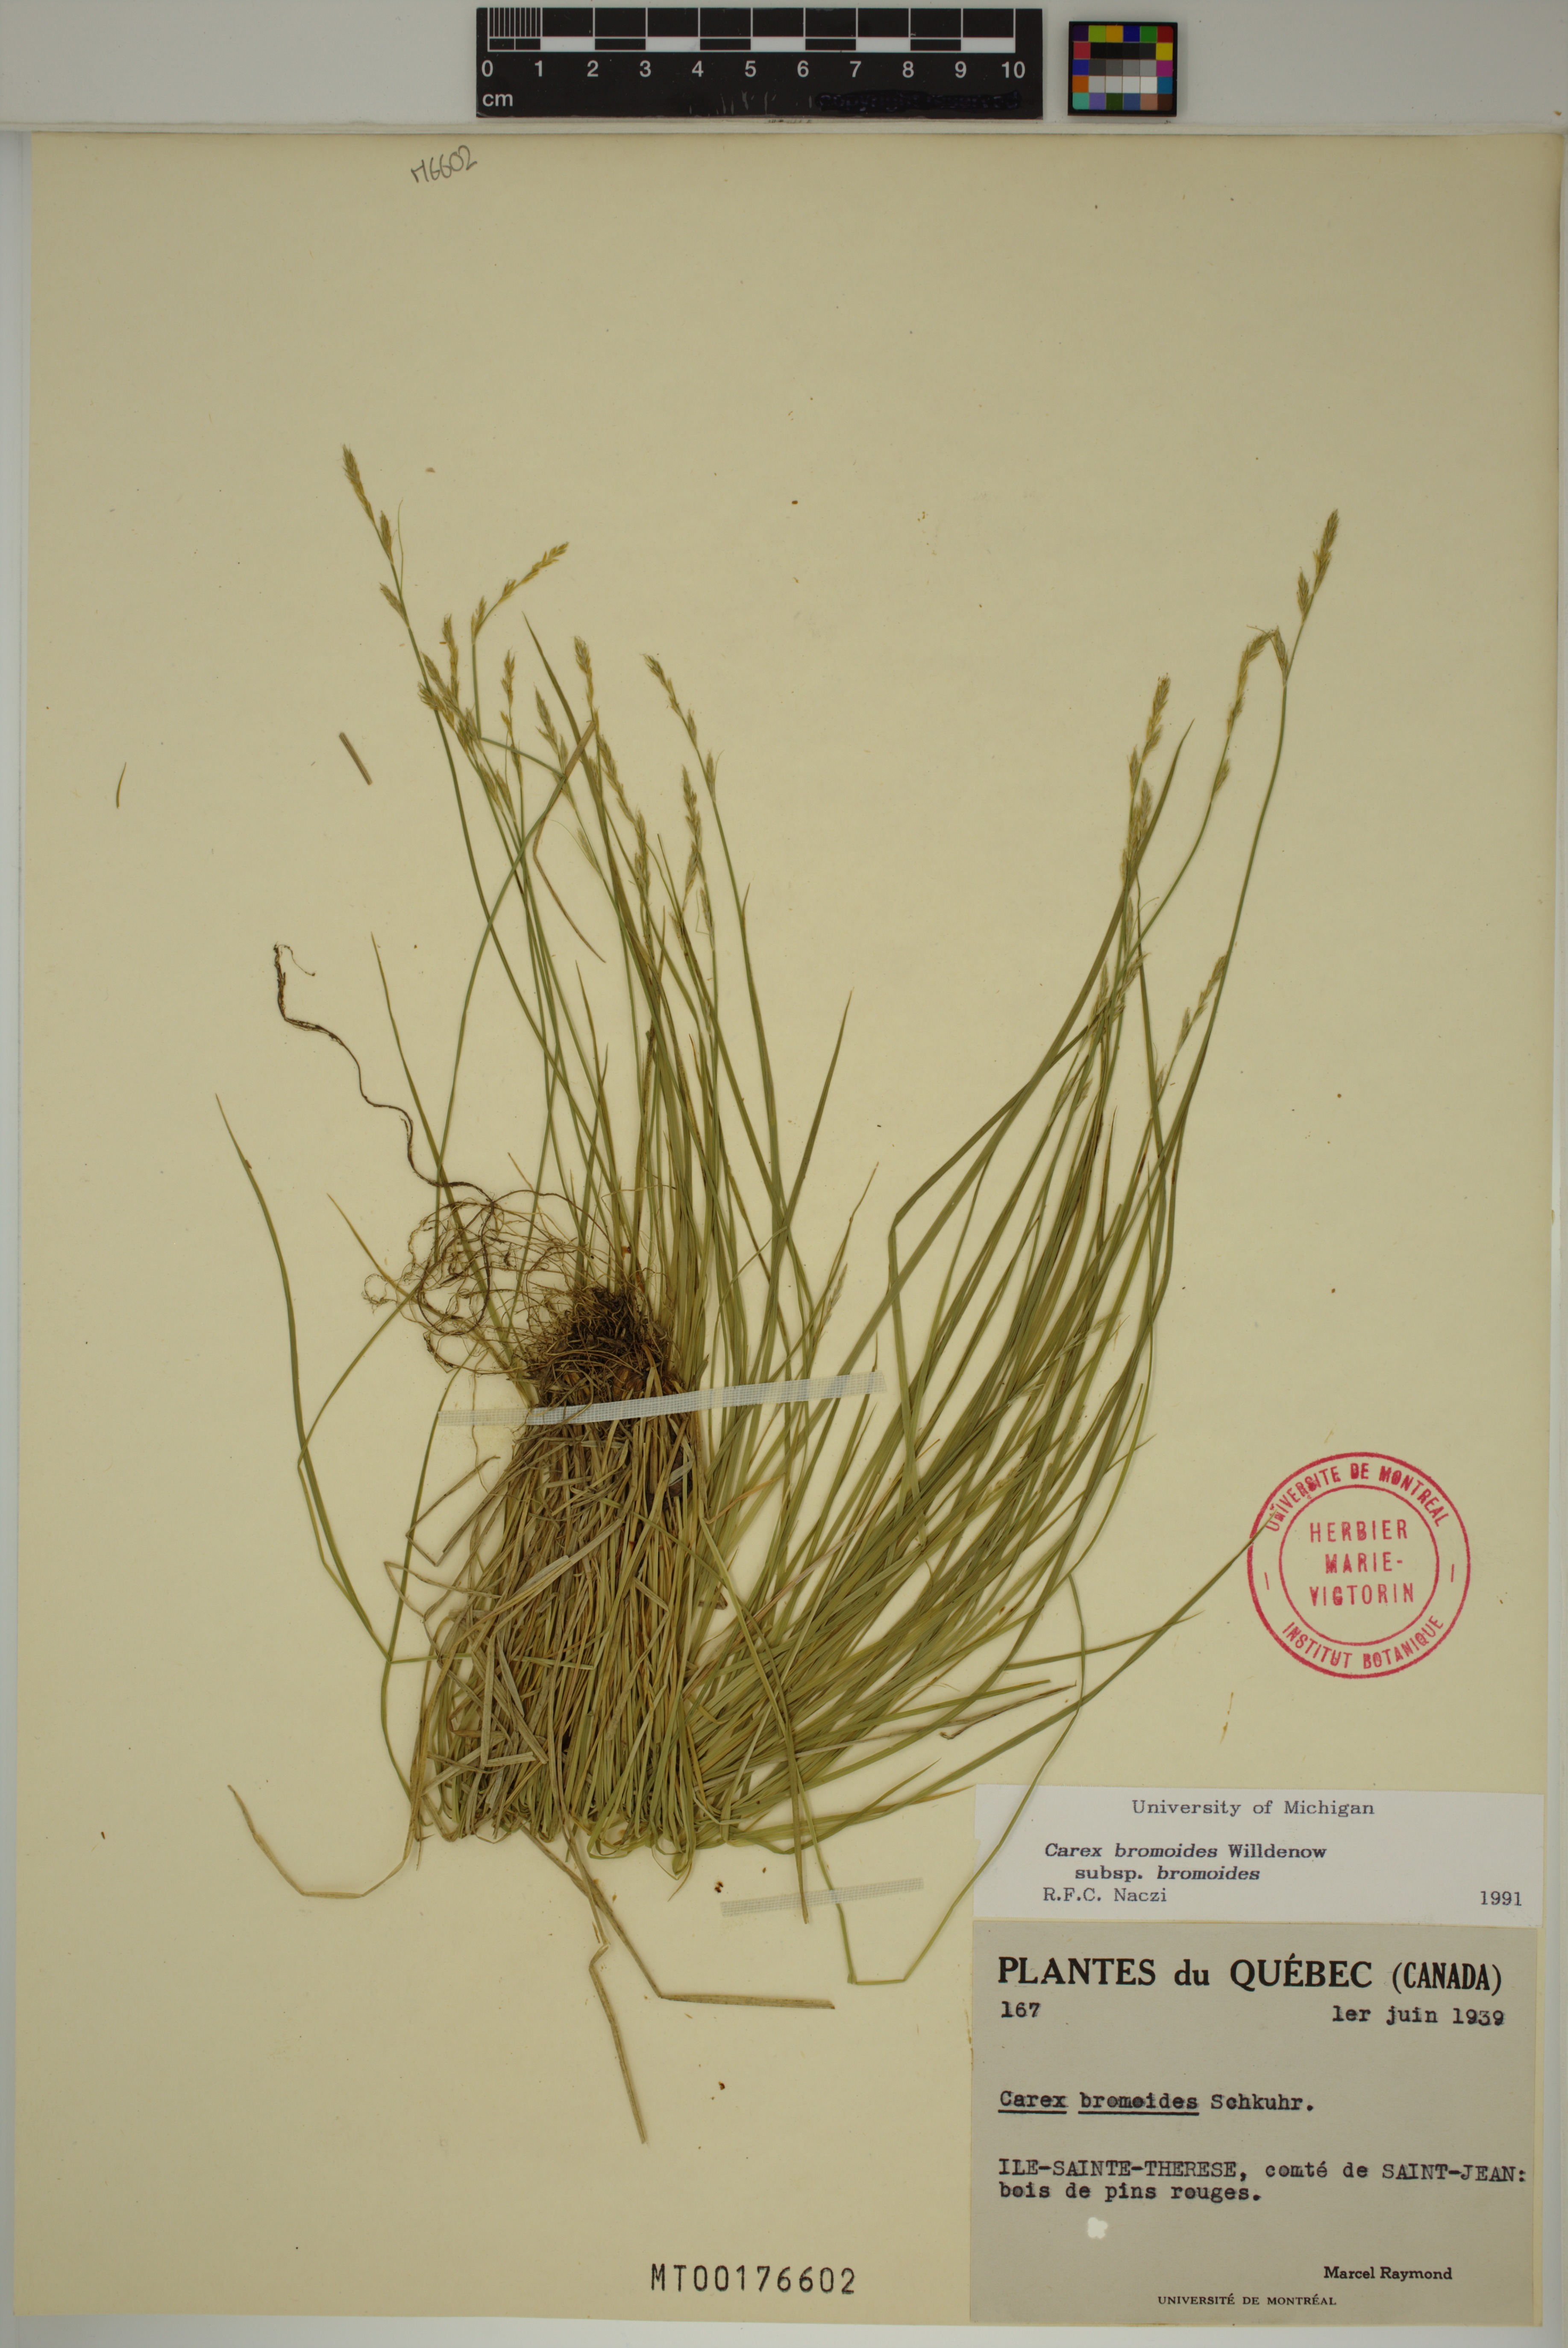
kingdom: Plantae
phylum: Tracheophyta
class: Liliopsida
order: Poales
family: Cyperaceae
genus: Carex
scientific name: Carex bromoides
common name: Brome hummock sedge
